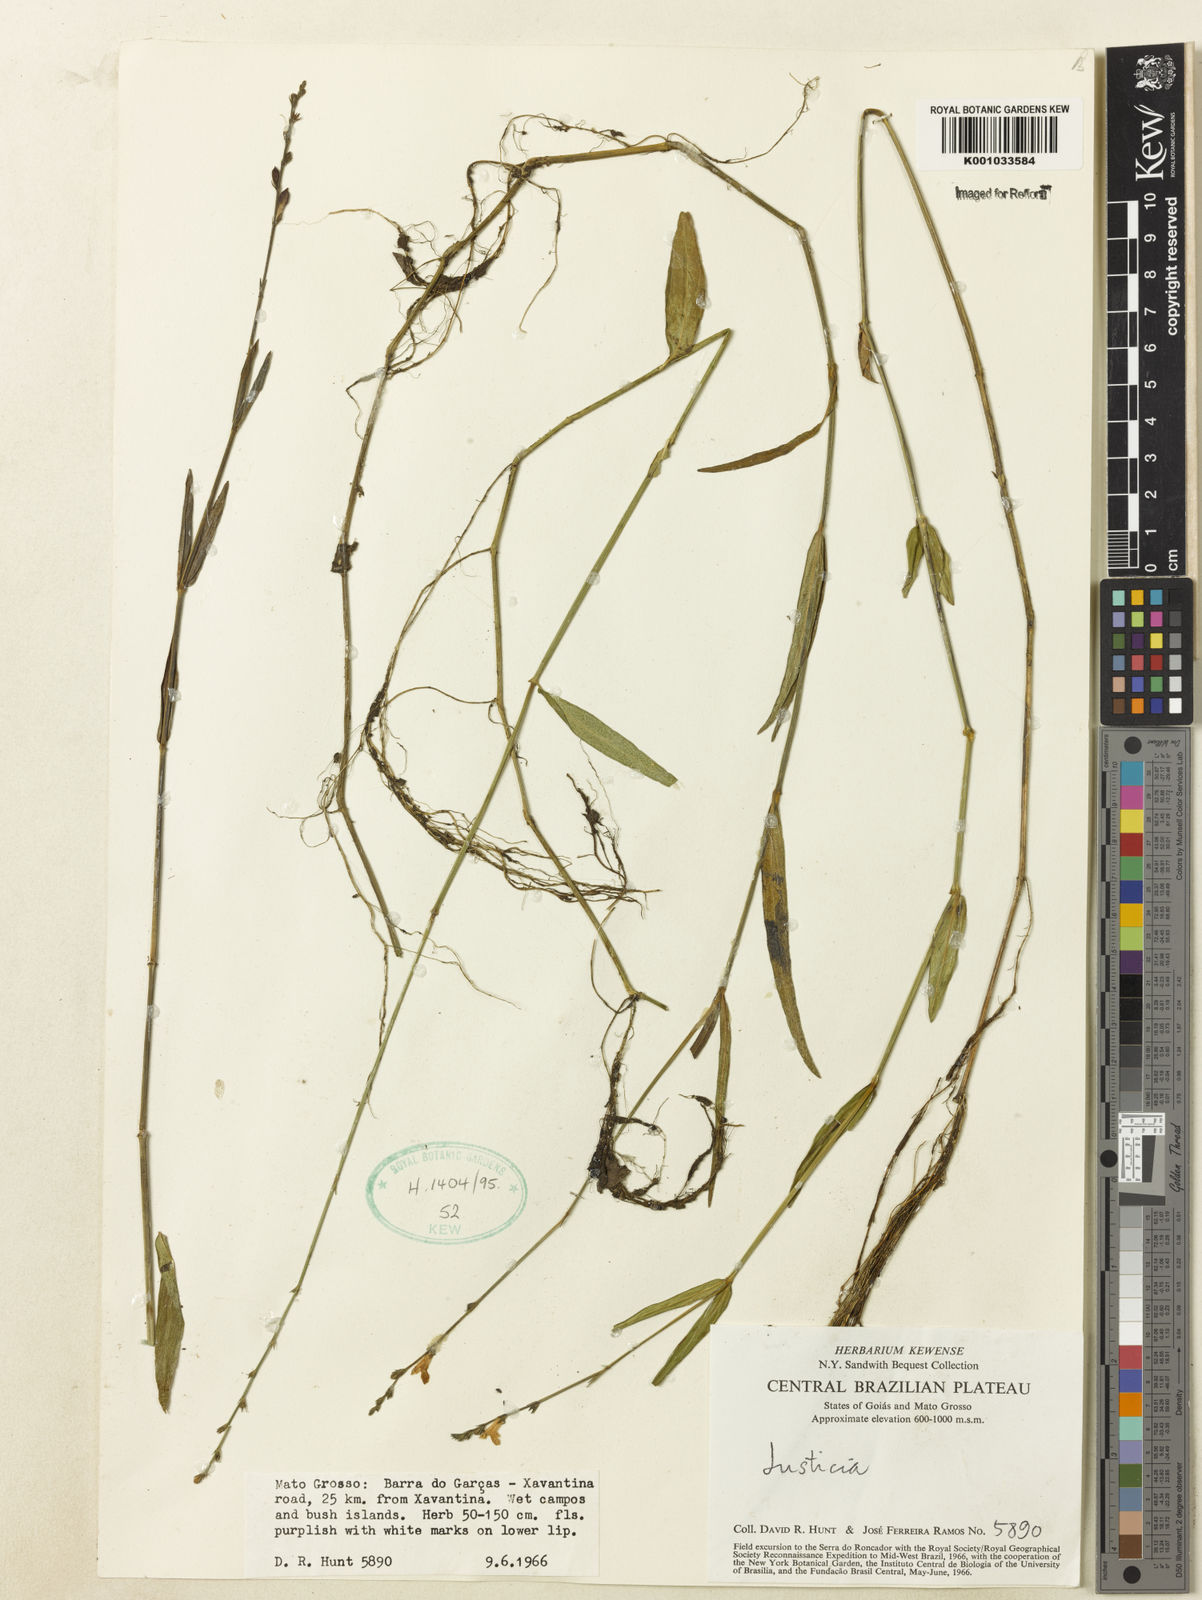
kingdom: Plantae
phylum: Tracheophyta
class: Magnoliopsida
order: Lamiales
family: Acanthaceae
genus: Justicia
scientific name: Justicia
